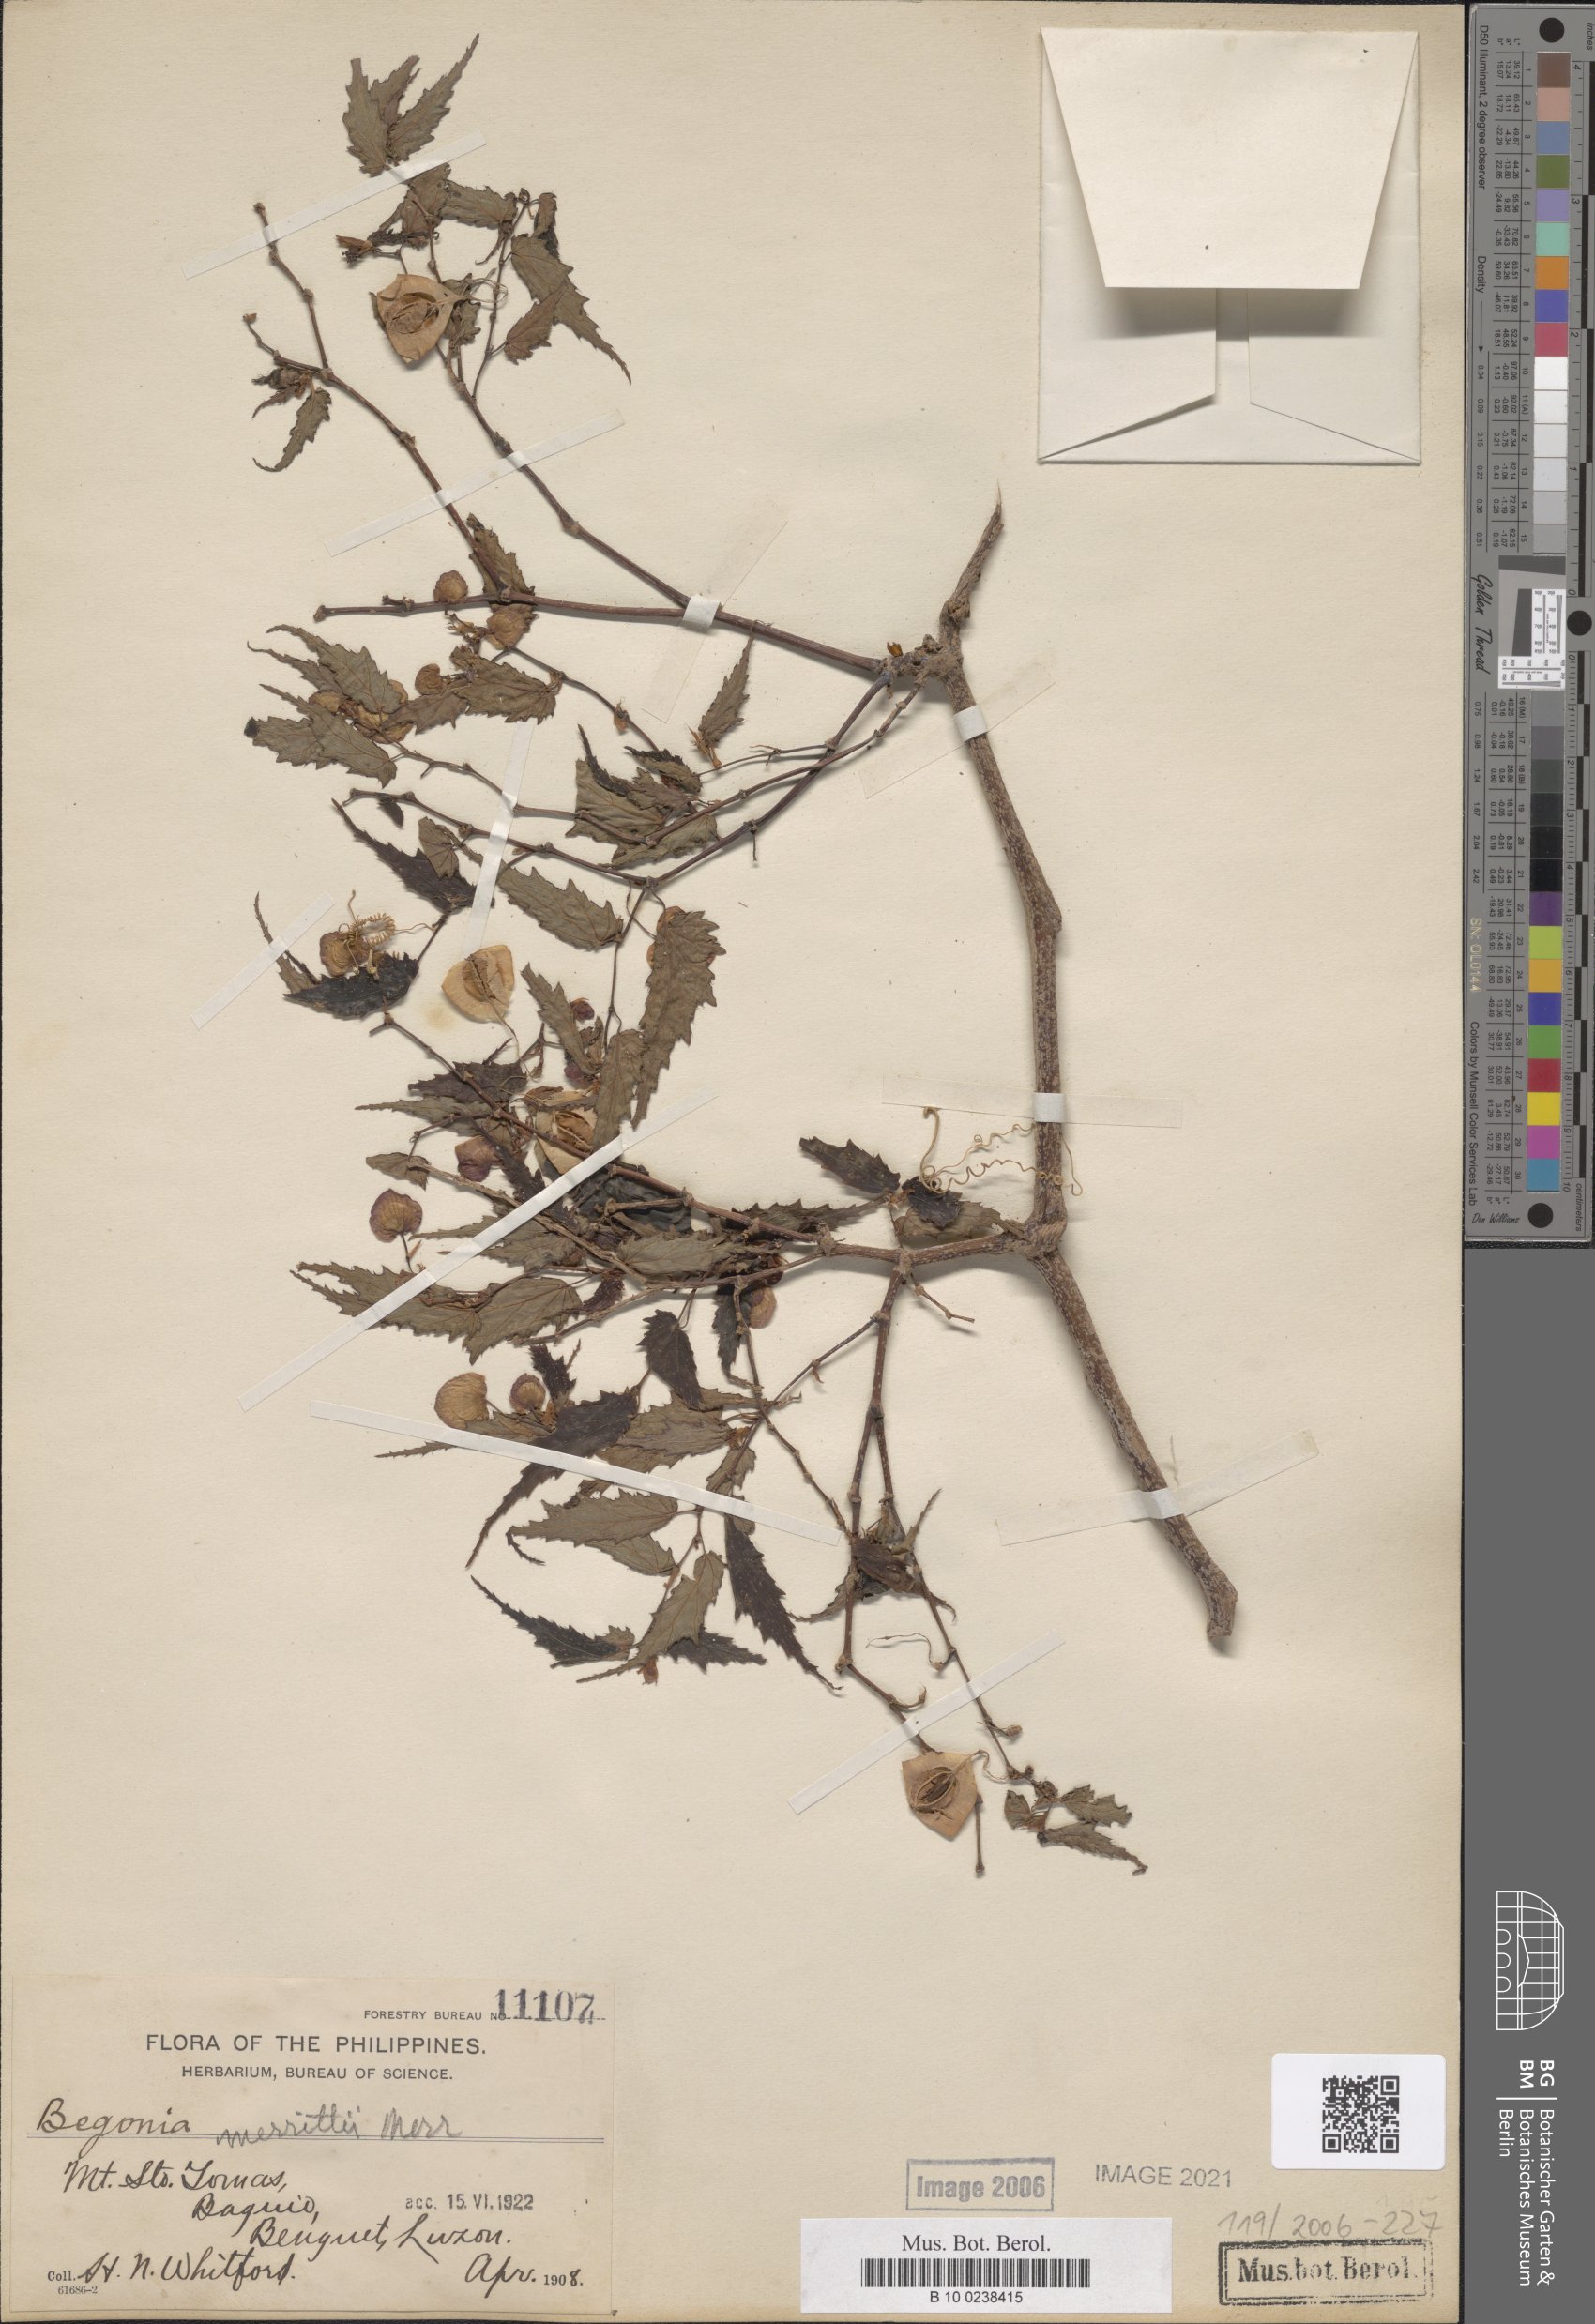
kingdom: Plantae
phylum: Tracheophyta
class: Magnoliopsida
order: Cucurbitales
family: Begoniaceae
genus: Begonia
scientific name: Begonia merrittii
